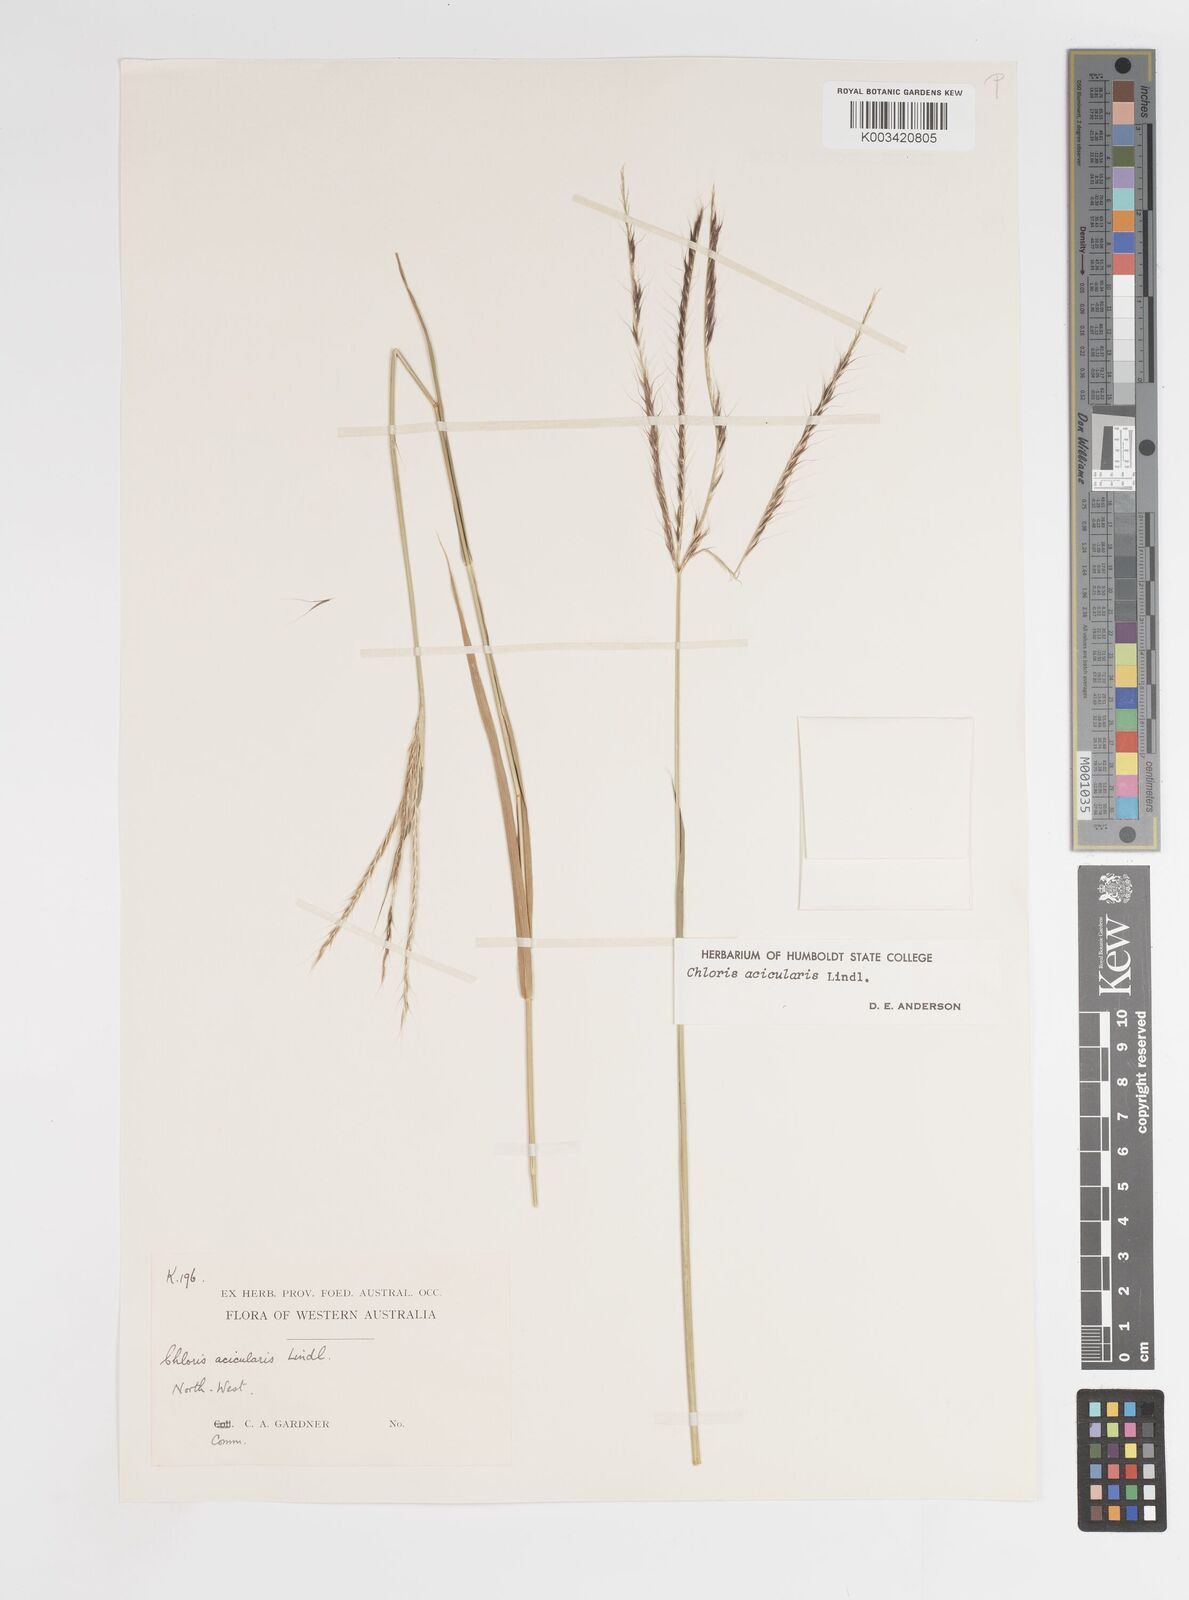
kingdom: Plantae
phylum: Tracheophyta
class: Liliopsida
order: Poales
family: Poaceae
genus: Enteropogon
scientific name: Enteropogon acicularis
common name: Curly windmill grass
